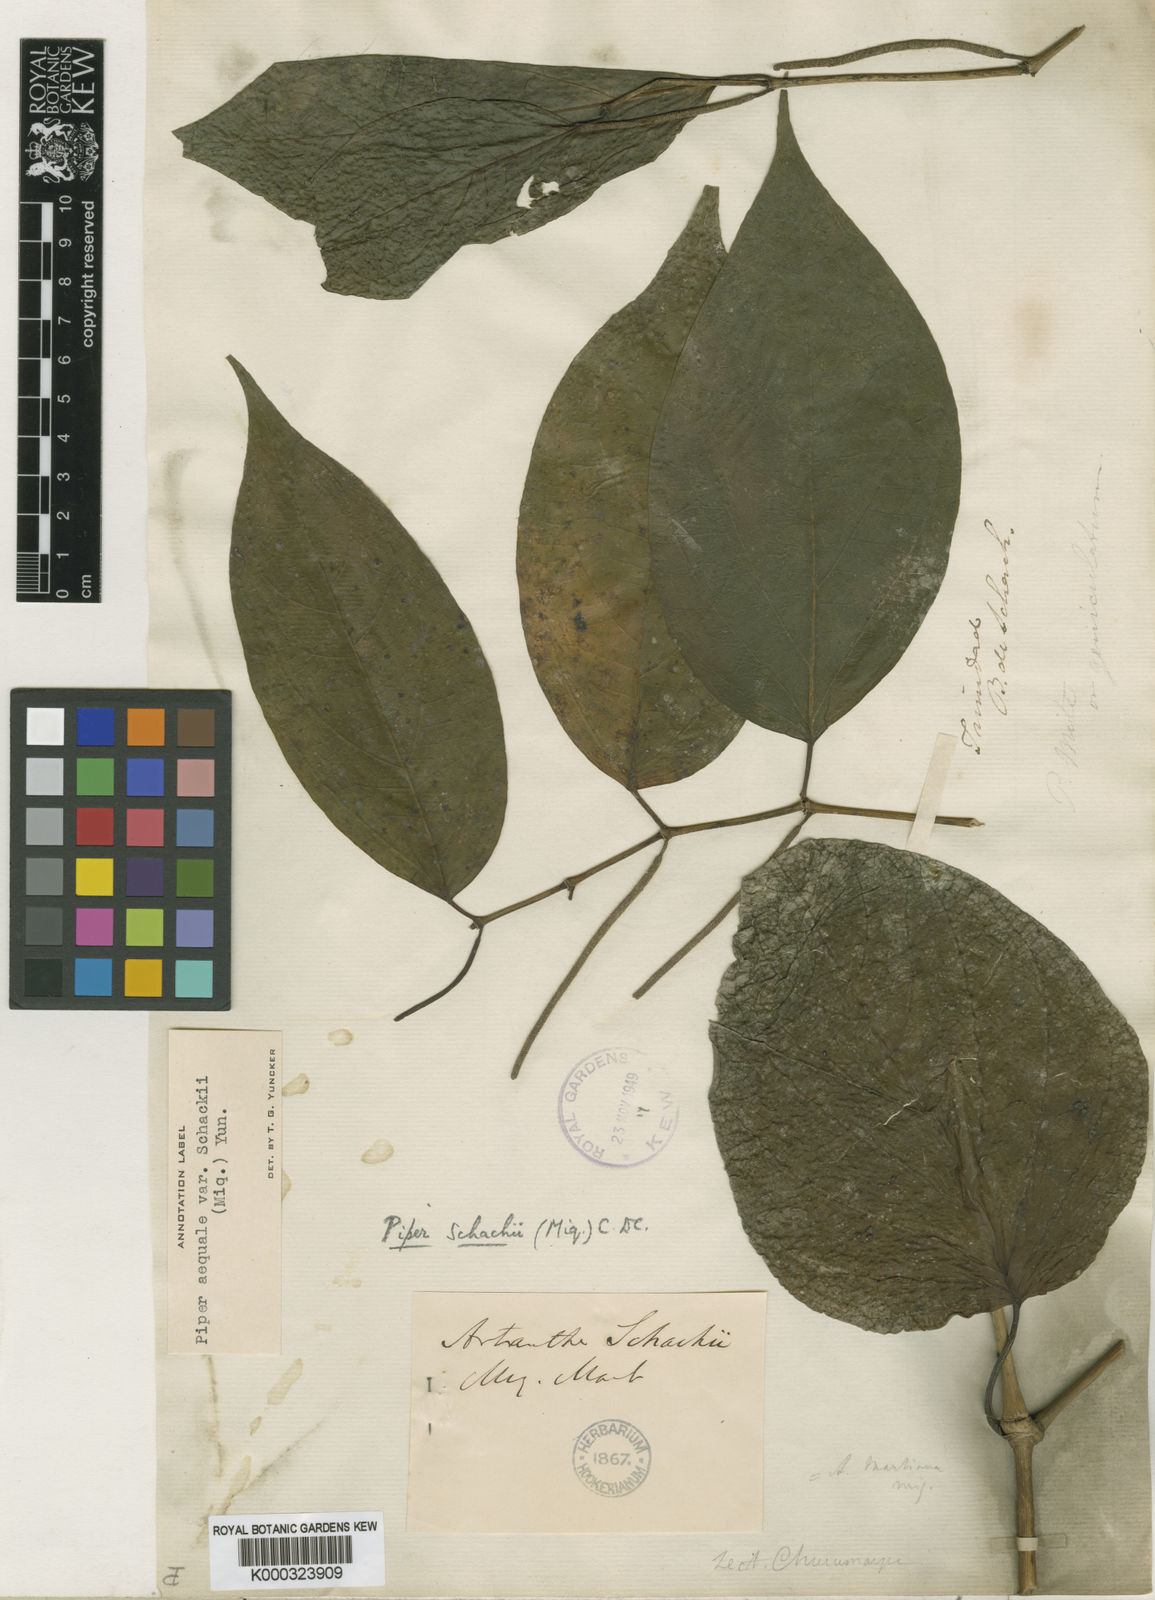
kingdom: Plantae
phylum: Tracheophyta
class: Magnoliopsida
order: Piperales
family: Piperaceae
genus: Piper
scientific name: Piper aequale
